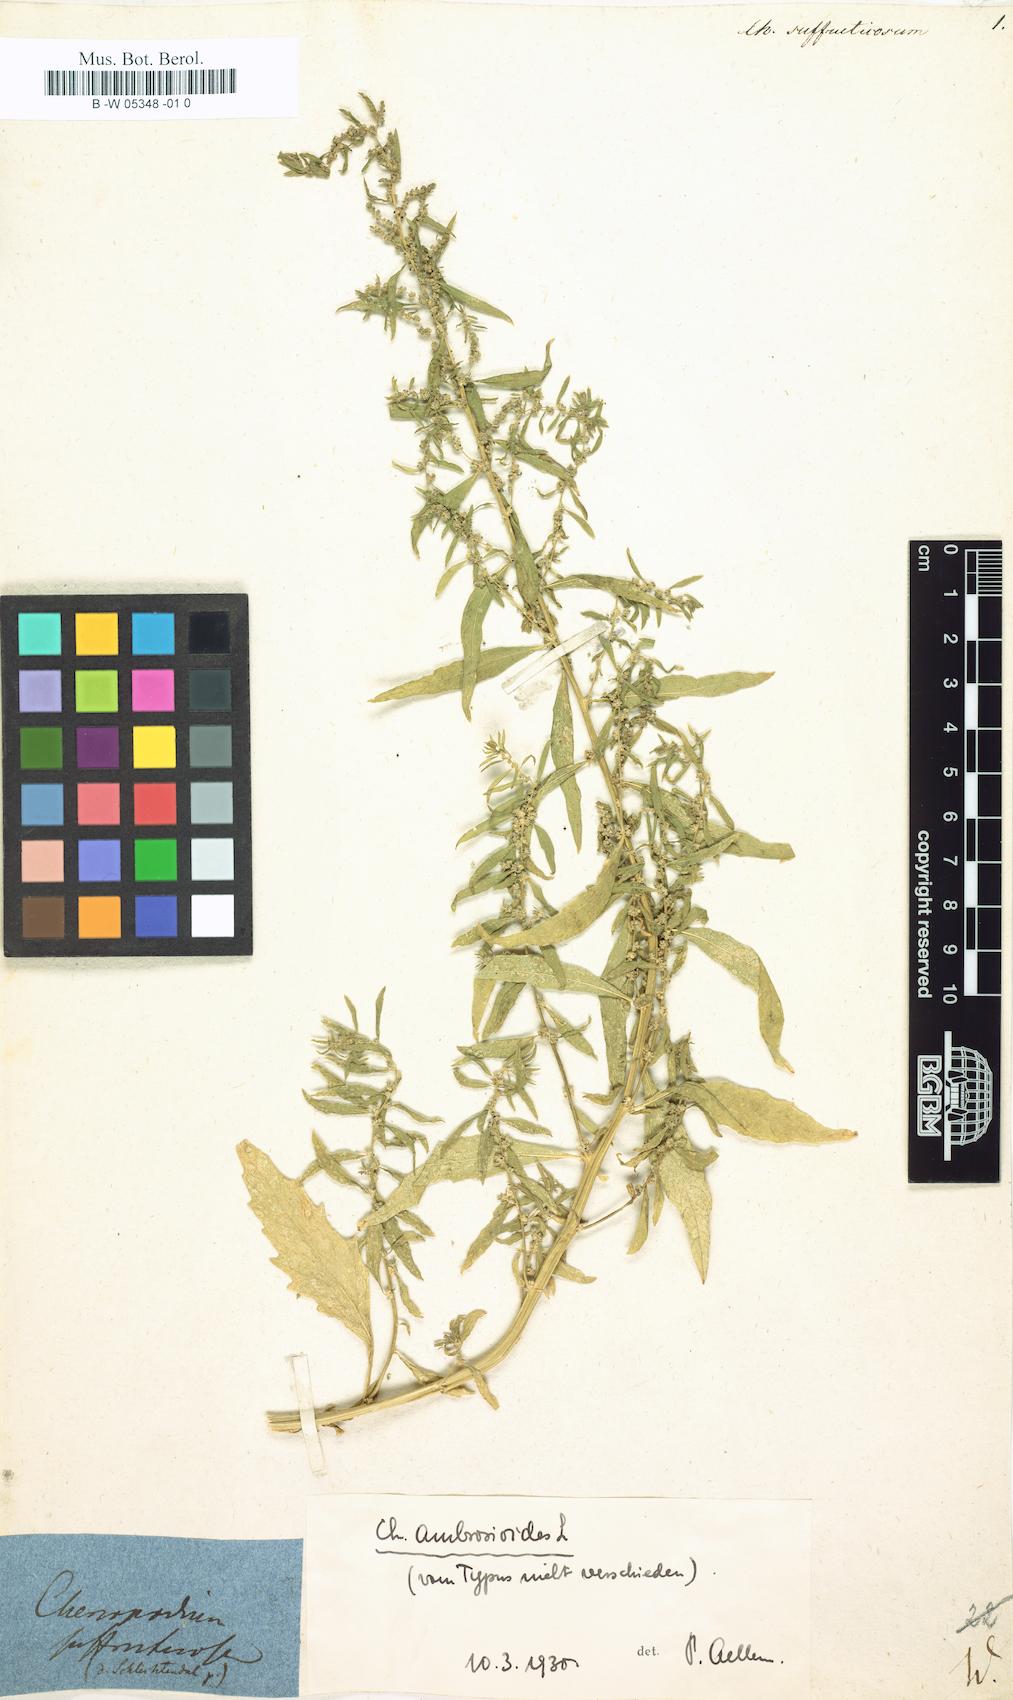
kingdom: Plantae
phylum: Tracheophyta
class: Magnoliopsida
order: Caryophyllales
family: Amaranthaceae
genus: Dysphania
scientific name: Dysphania ambrosioides
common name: Wormseed
